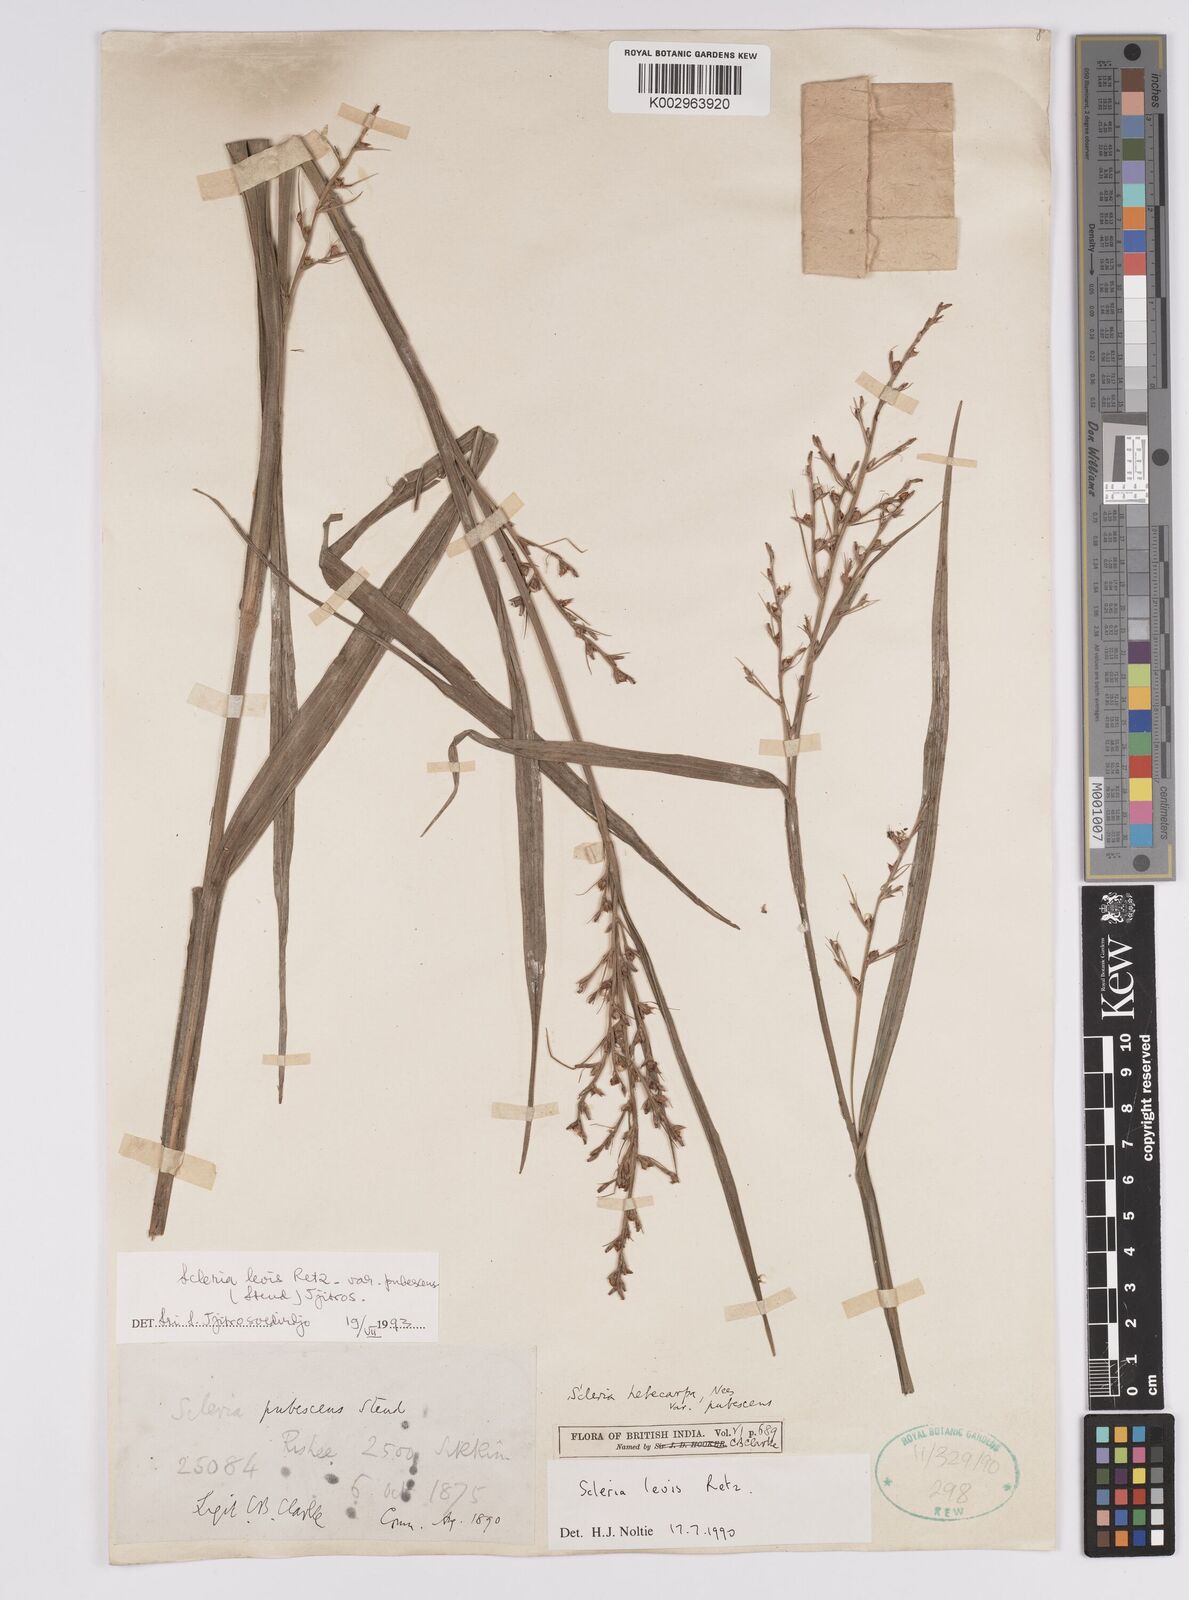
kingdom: Plantae
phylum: Tracheophyta
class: Liliopsida
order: Poales
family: Cyperaceae
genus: Scleria
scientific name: Scleria levis
